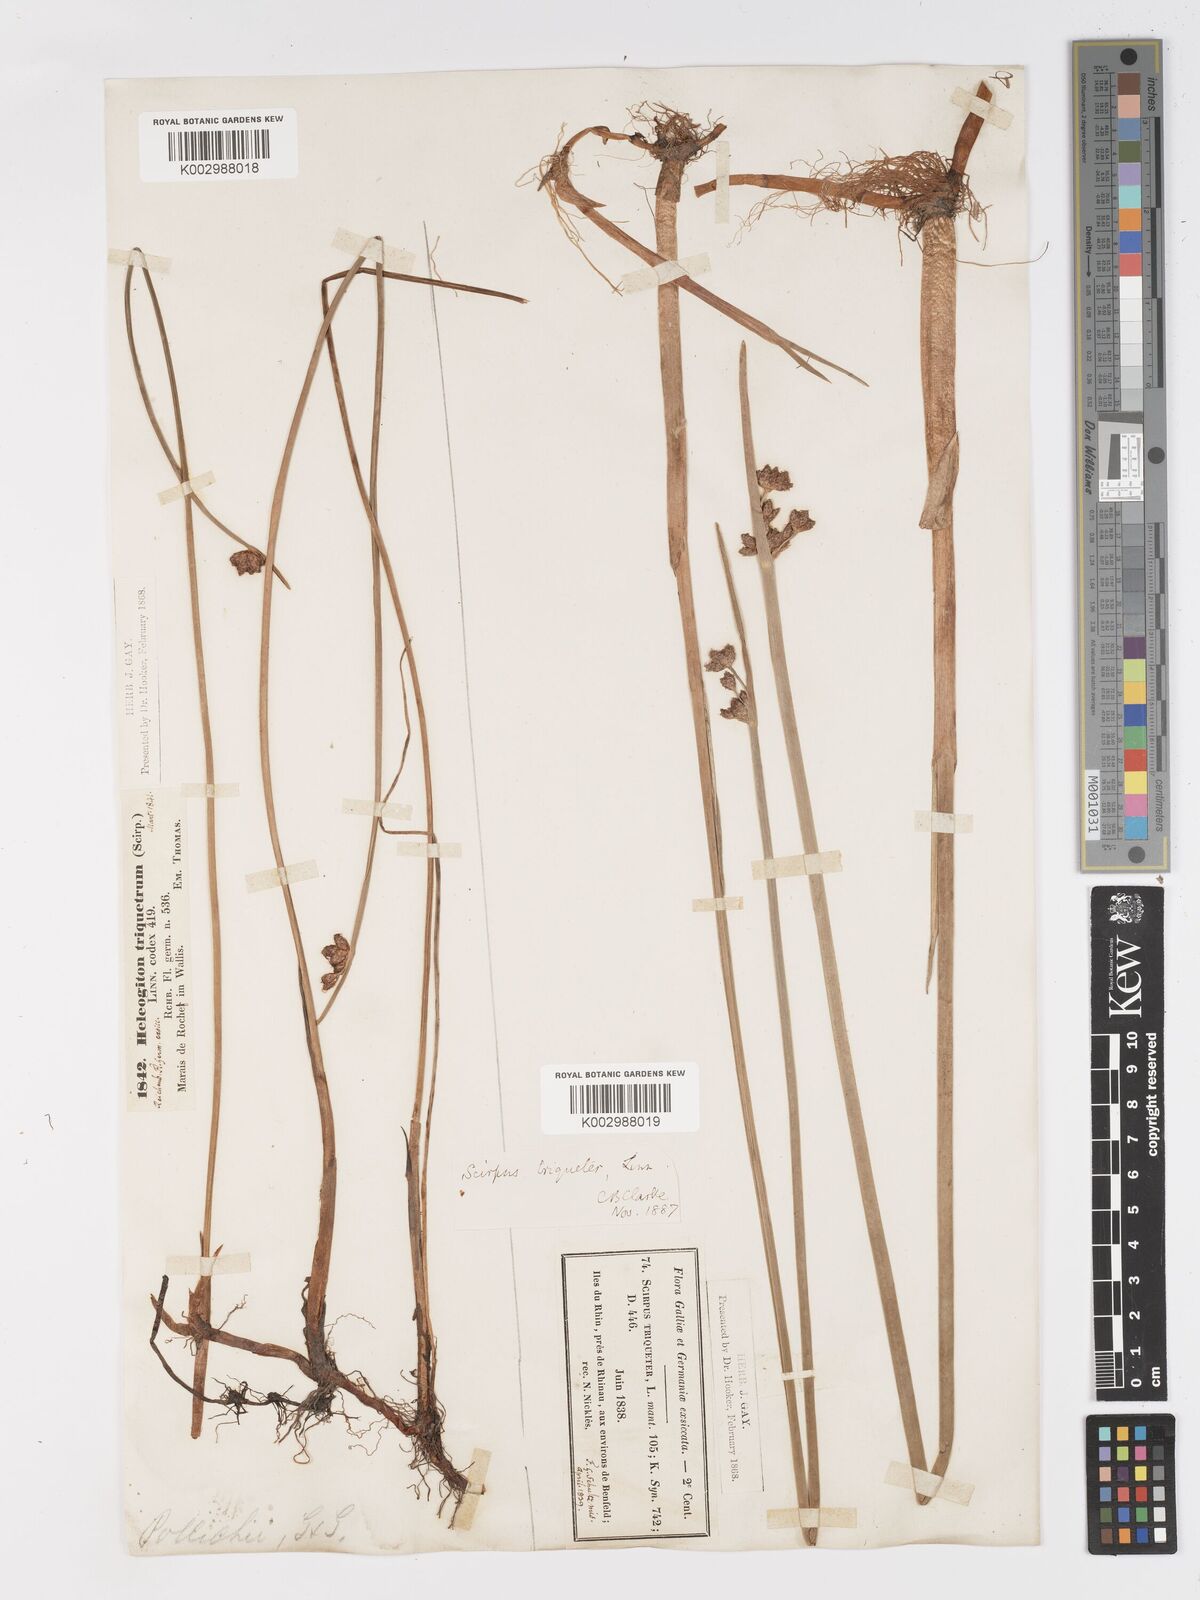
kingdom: Plantae
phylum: Tracheophyta
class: Liliopsida
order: Poales
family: Cyperaceae
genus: Schoenoplectus
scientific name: Schoenoplectus triqueter
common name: Triangular club-rush
